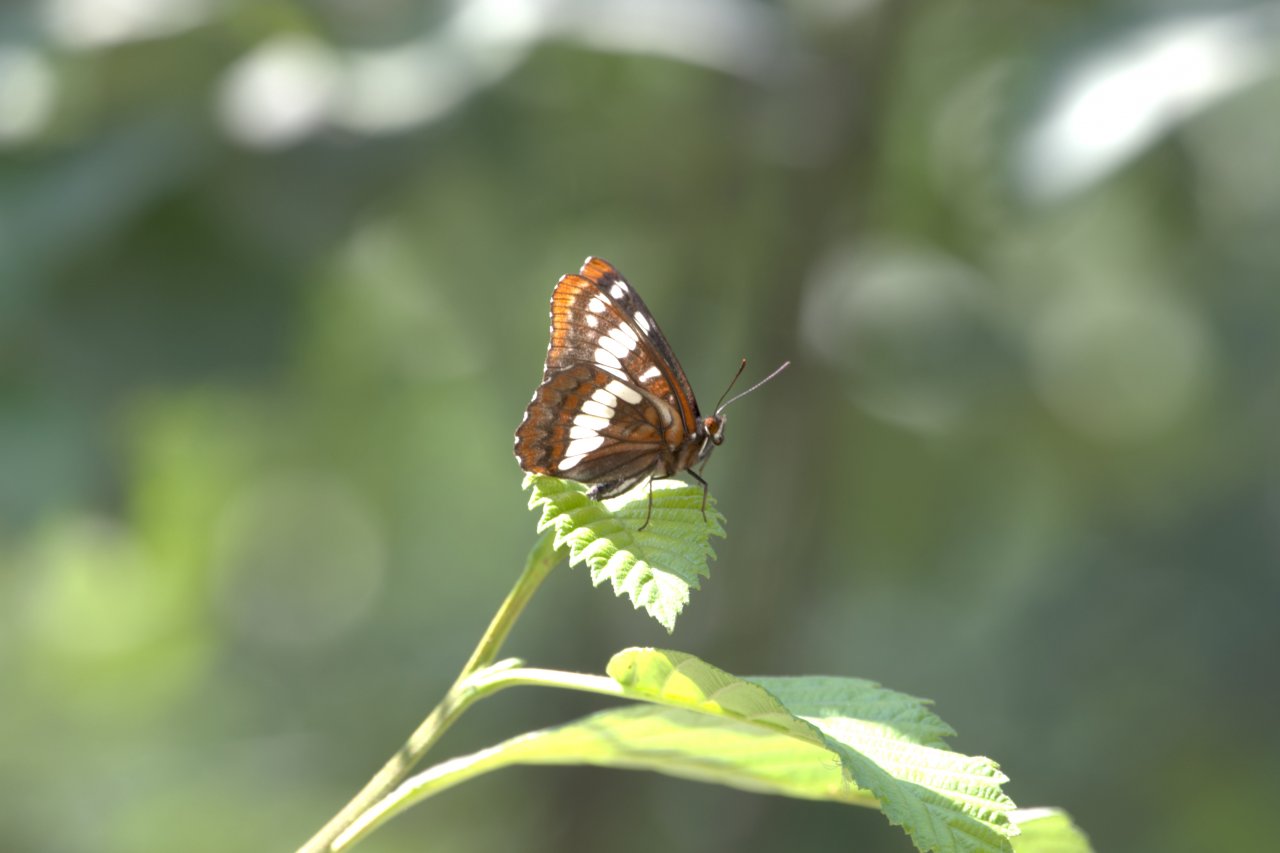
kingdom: Animalia
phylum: Arthropoda
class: Insecta
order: Lepidoptera
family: Nymphalidae
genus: Limenitis
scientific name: Limenitis lorquini
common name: Lorquin's Admiral
